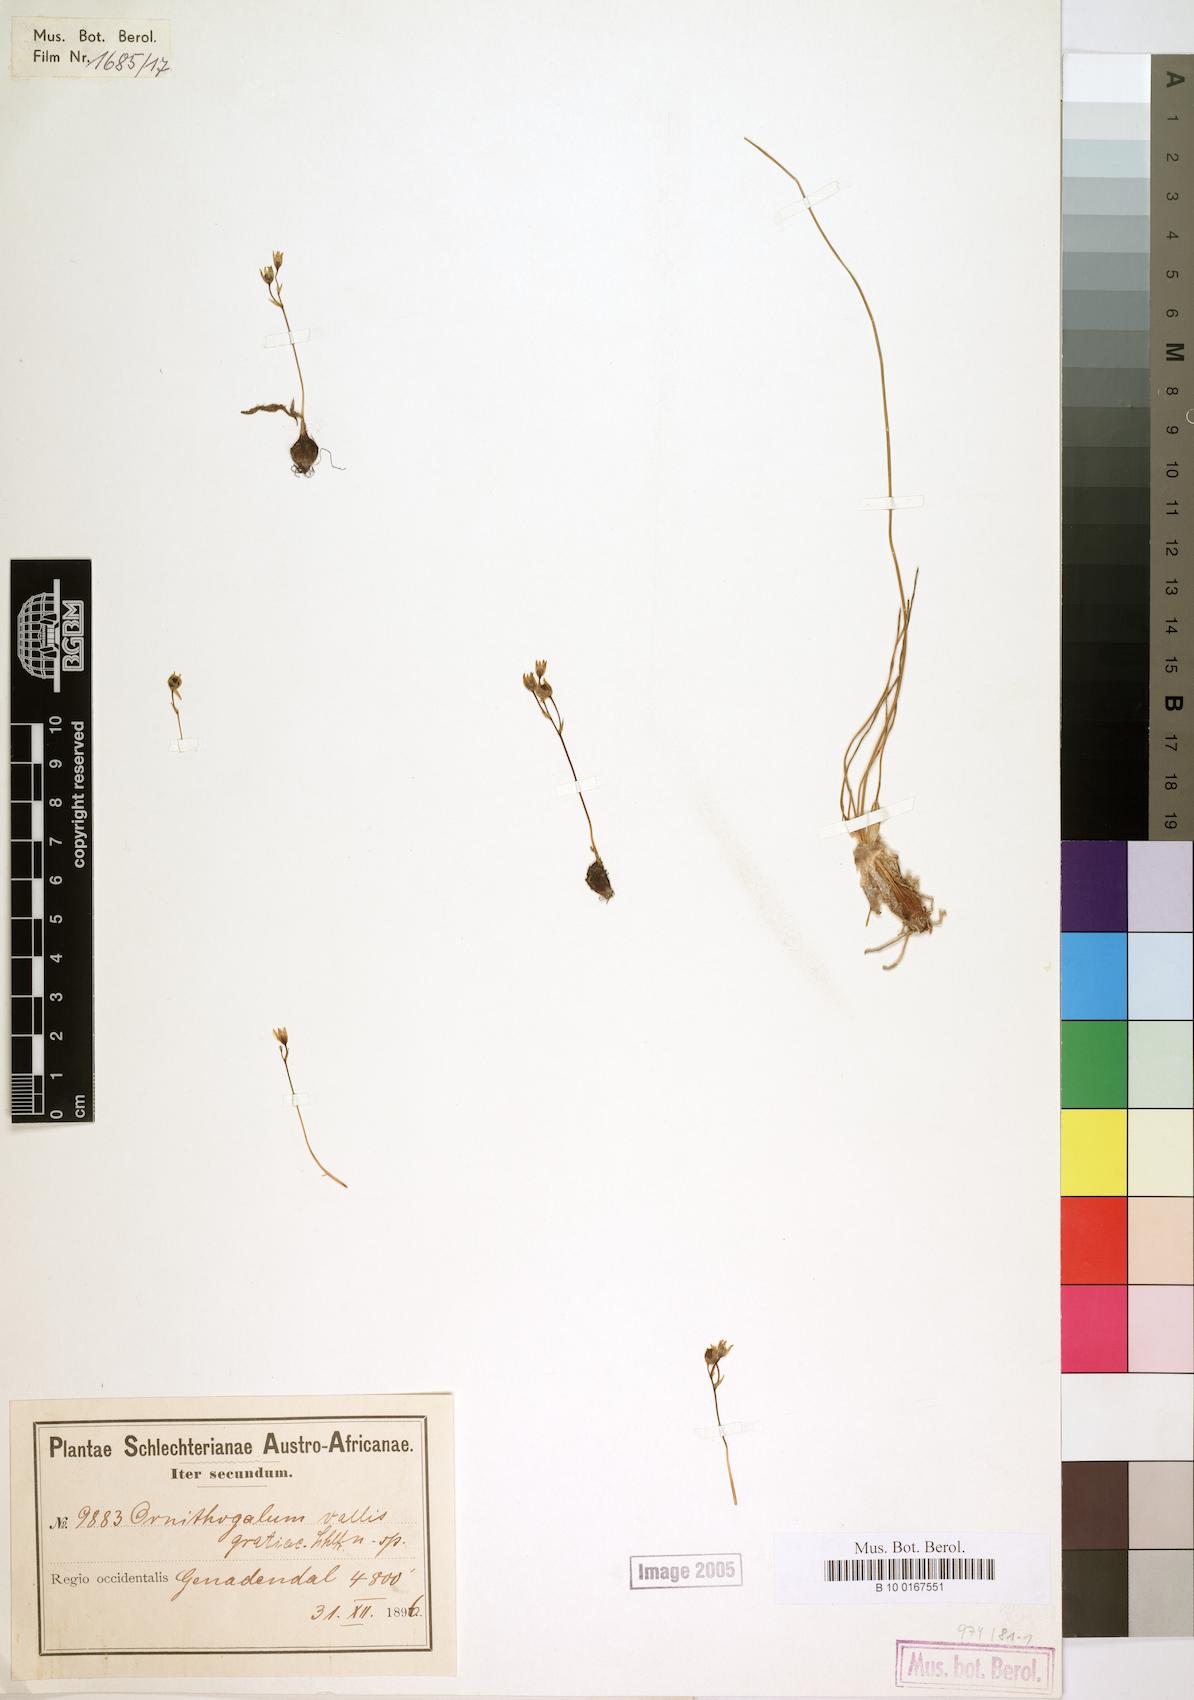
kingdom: Plantae
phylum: Tracheophyta
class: Liliopsida
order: Asparagales
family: Asparagaceae
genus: Ornithogalum
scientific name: Ornithogalum niveum
